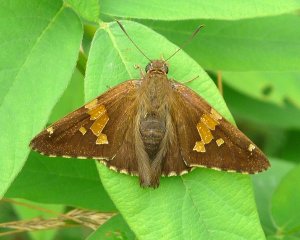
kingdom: Animalia
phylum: Arthropoda
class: Insecta
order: Lepidoptera
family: Hesperiidae
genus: Epargyreus
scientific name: Epargyreus clarus
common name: Silver-spotted Skipper
